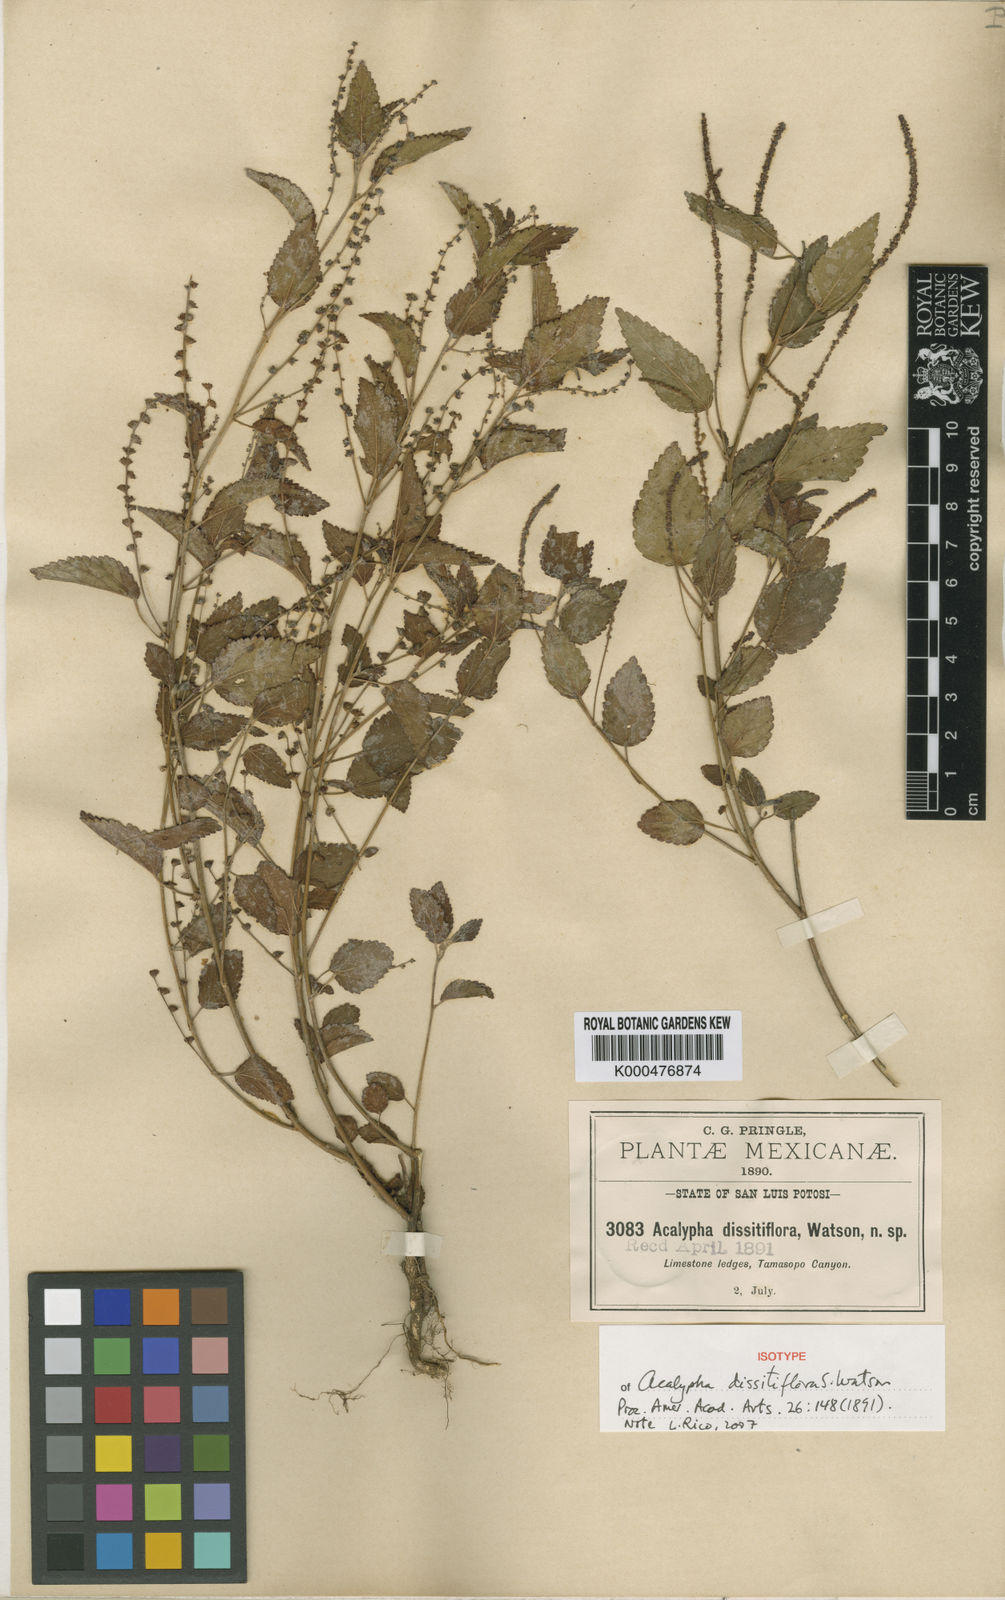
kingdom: Plantae
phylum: Tracheophyta
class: Magnoliopsida
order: Malpighiales
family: Euphorbiaceae
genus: Acalypha
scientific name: Acalypha dioica
